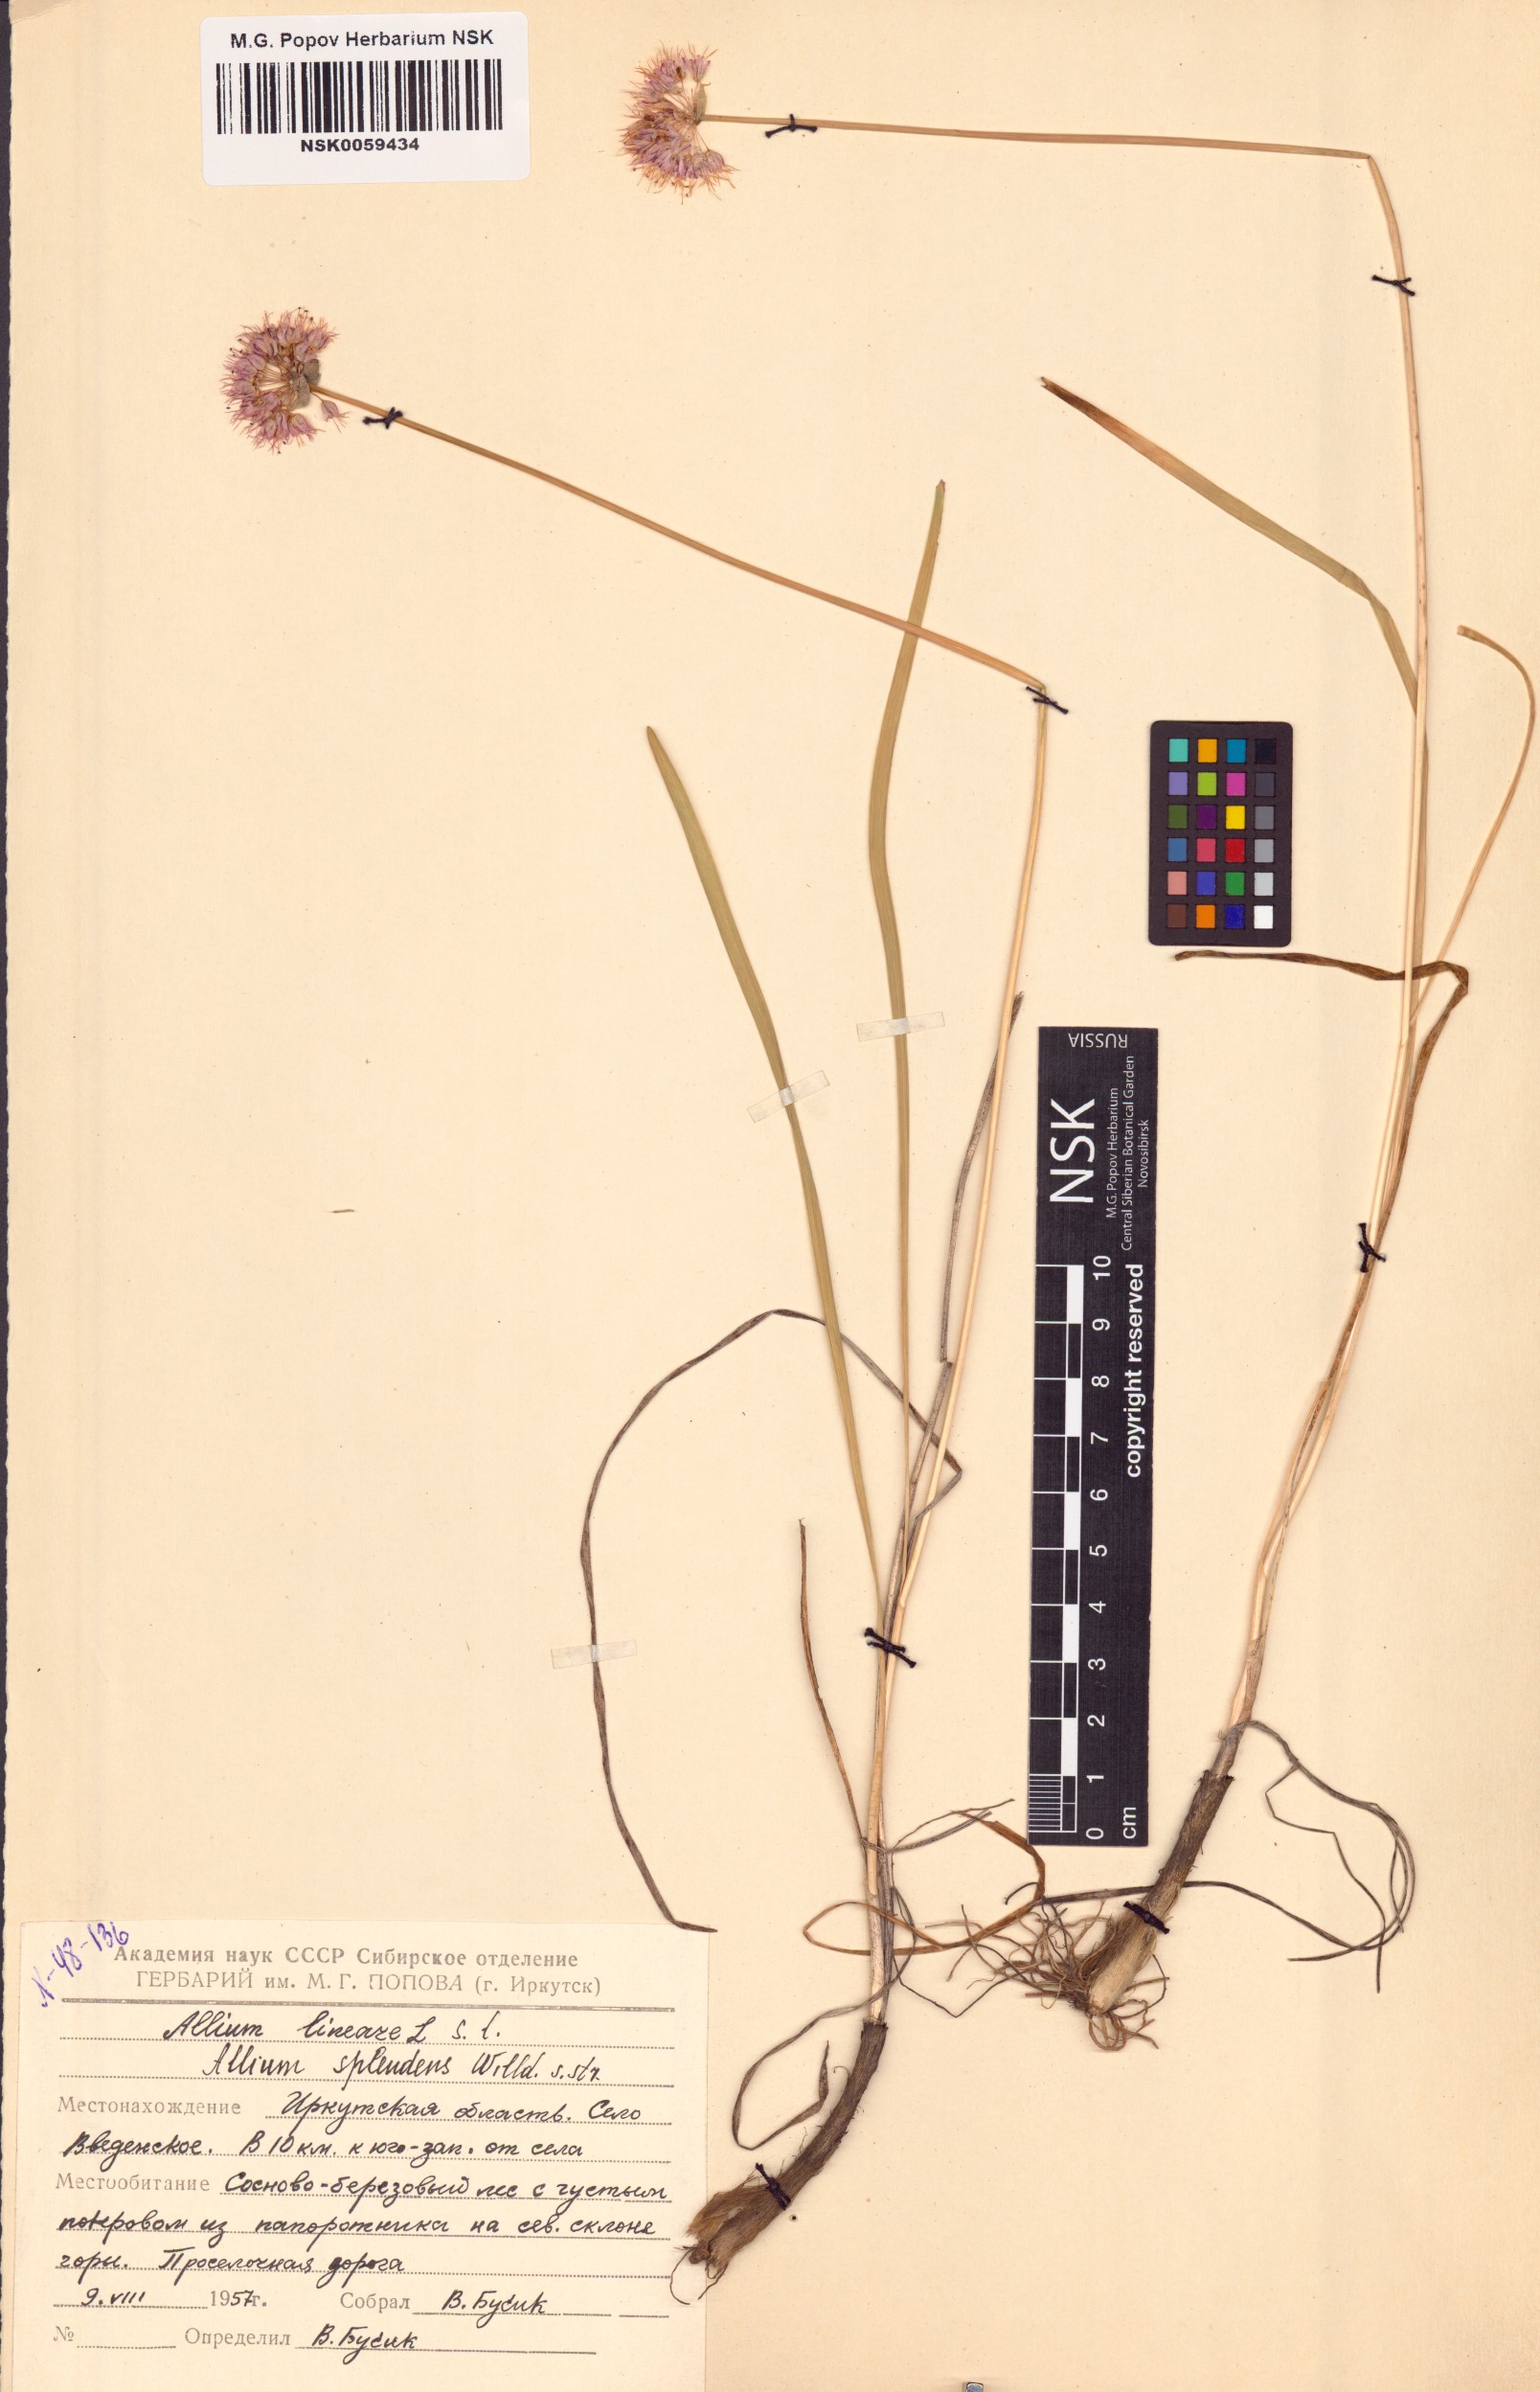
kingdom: Plantae
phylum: Tracheophyta
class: Liliopsida
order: Asparagales
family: Amaryllidaceae
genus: Allium
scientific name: Allium splendens
